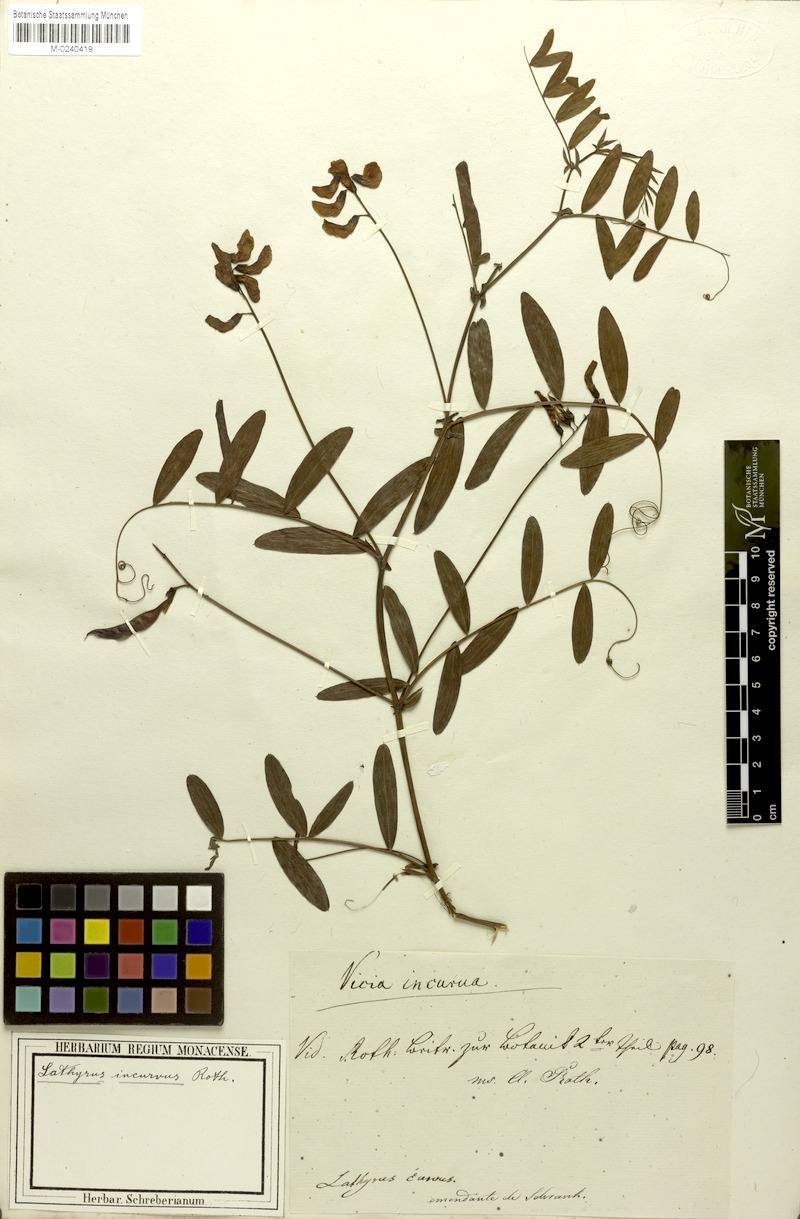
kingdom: Plantae
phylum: Tracheophyta
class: Magnoliopsida
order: Fabales
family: Fabaceae
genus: Lathyrus
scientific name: Lathyrus incurvus
